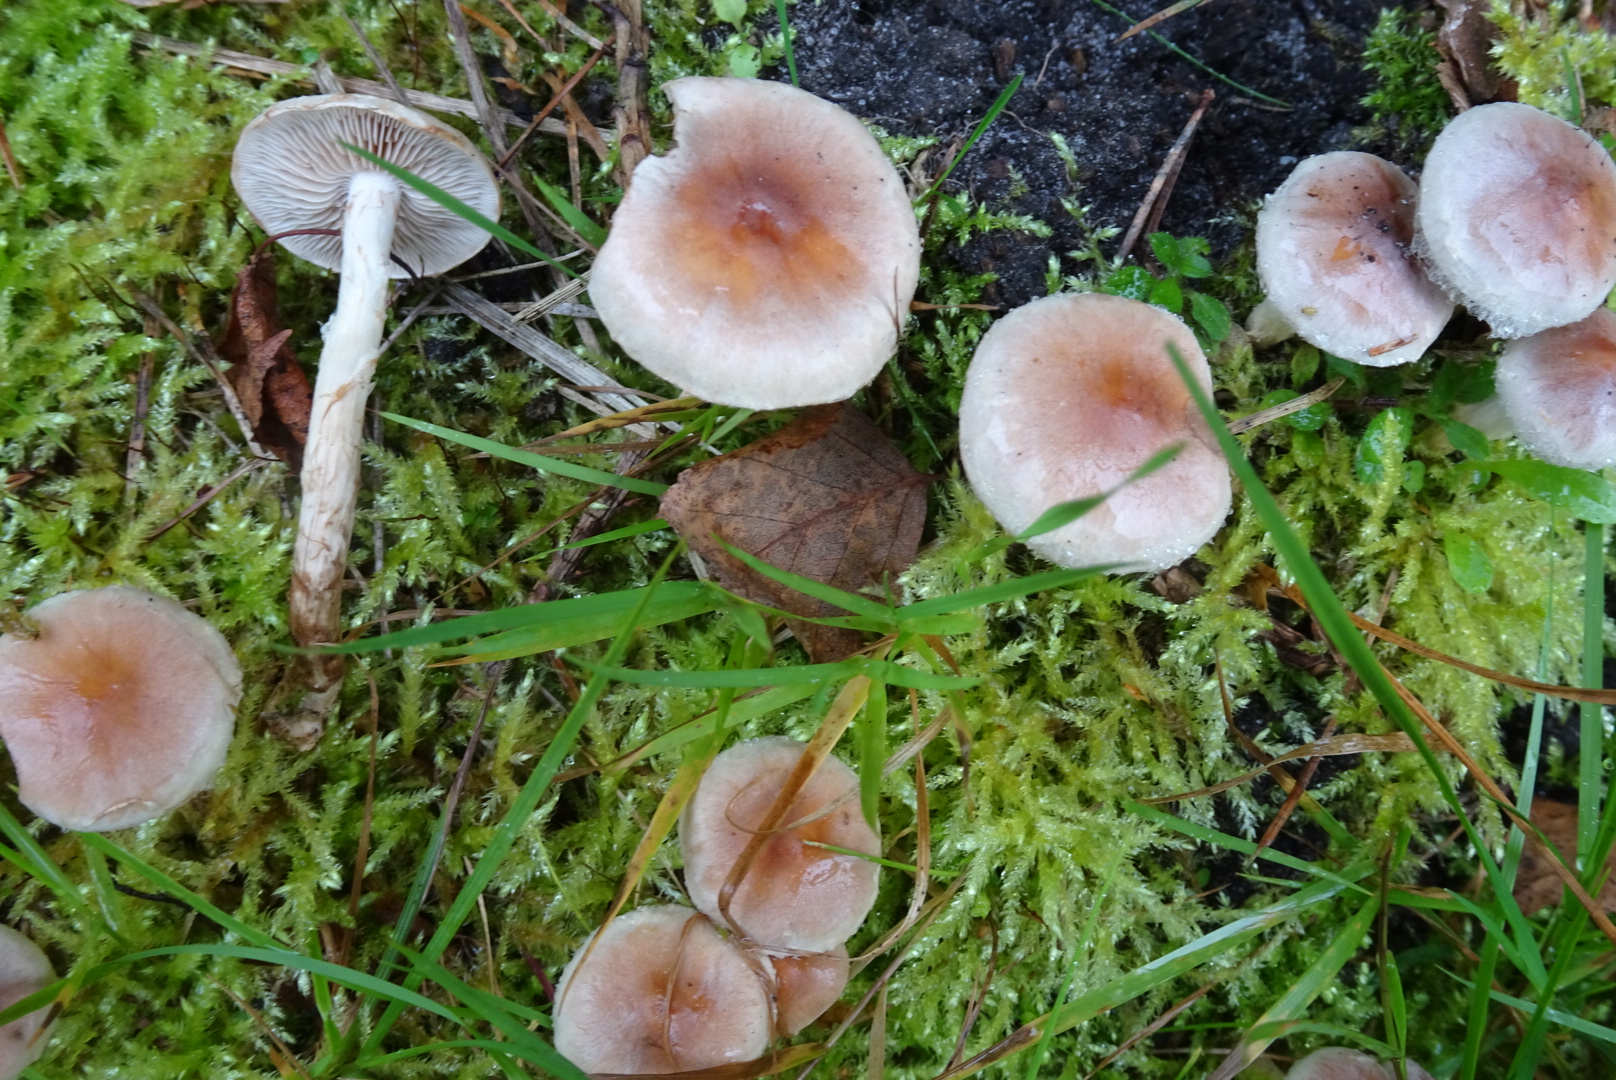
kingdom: Fungi
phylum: Basidiomycota
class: Agaricomycetes
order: Agaricales
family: Hymenogastraceae
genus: Hebeloma
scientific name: Hebeloma mesophaeum
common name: lerbrun tåreblad
